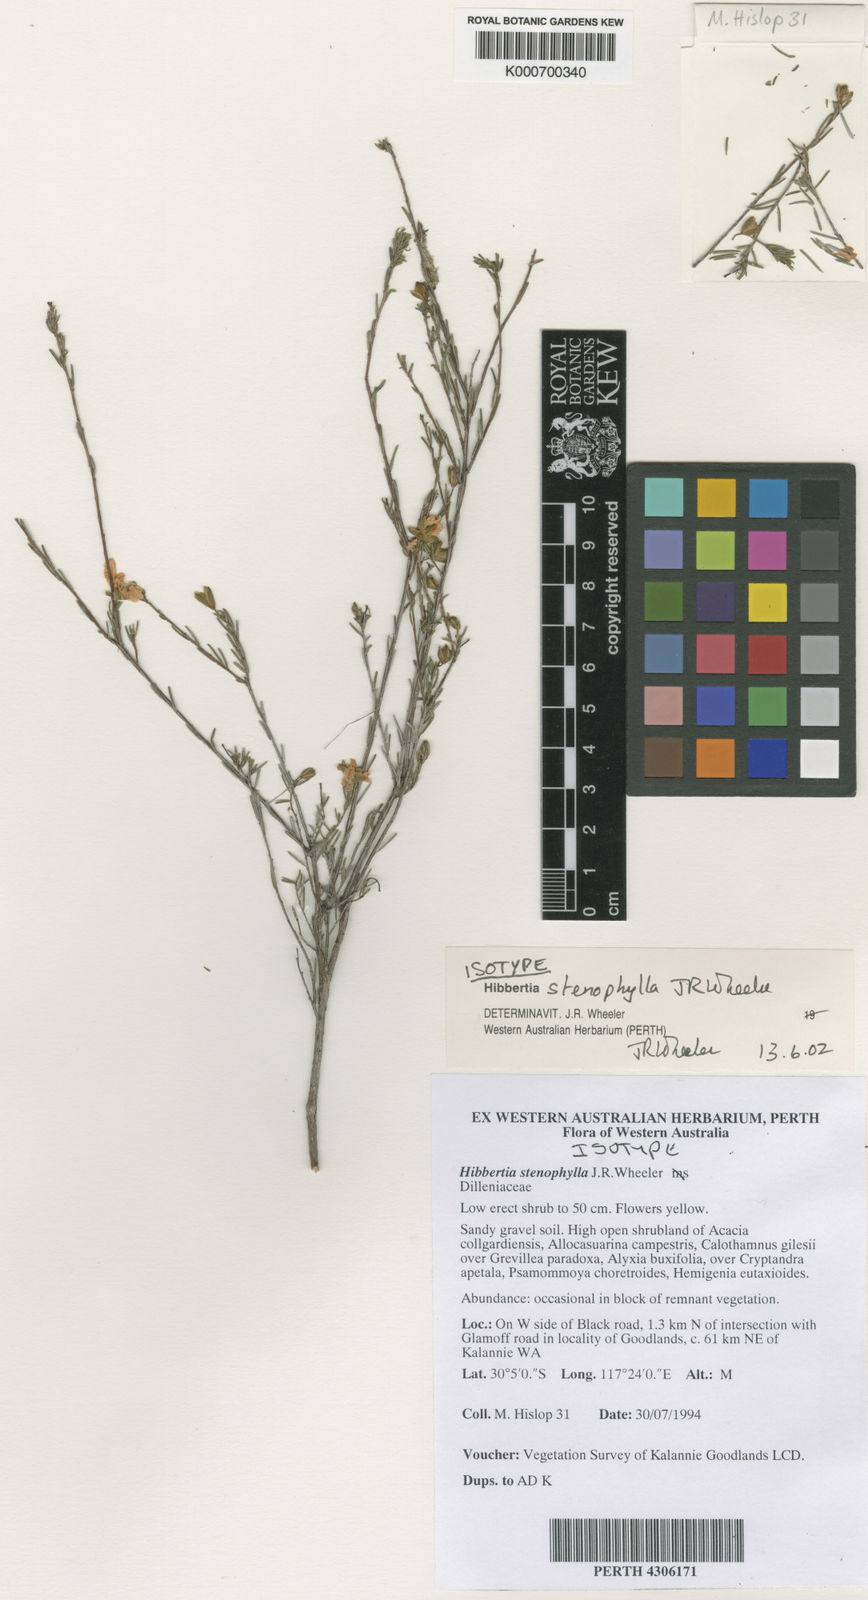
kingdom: Plantae
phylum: Tracheophyta
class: Magnoliopsida
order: Dilleniales
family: Dilleniaceae
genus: Hibbertia
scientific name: Hibbertia stenophylla
